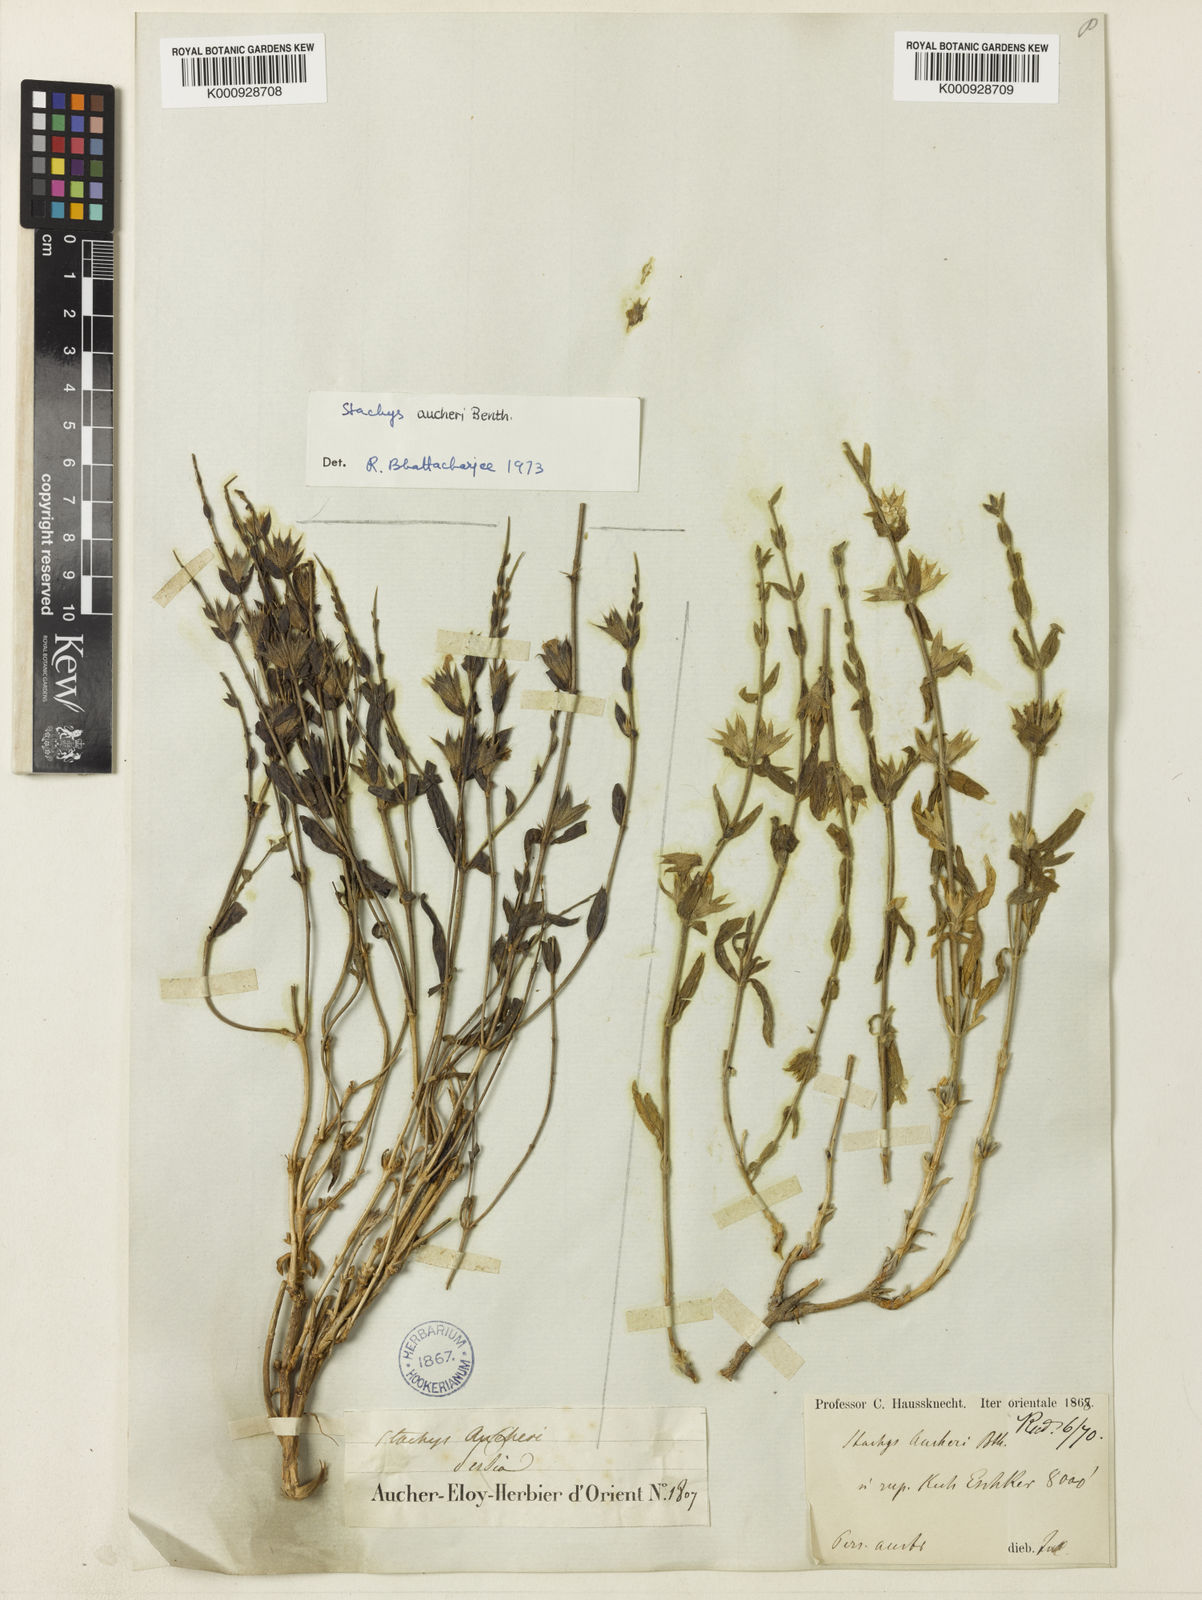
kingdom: Plantae
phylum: Tracheophyta
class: Magnoliopsida
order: Lamiales
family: Lamiaceae
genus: Stachys
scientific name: Stachys aucheri
